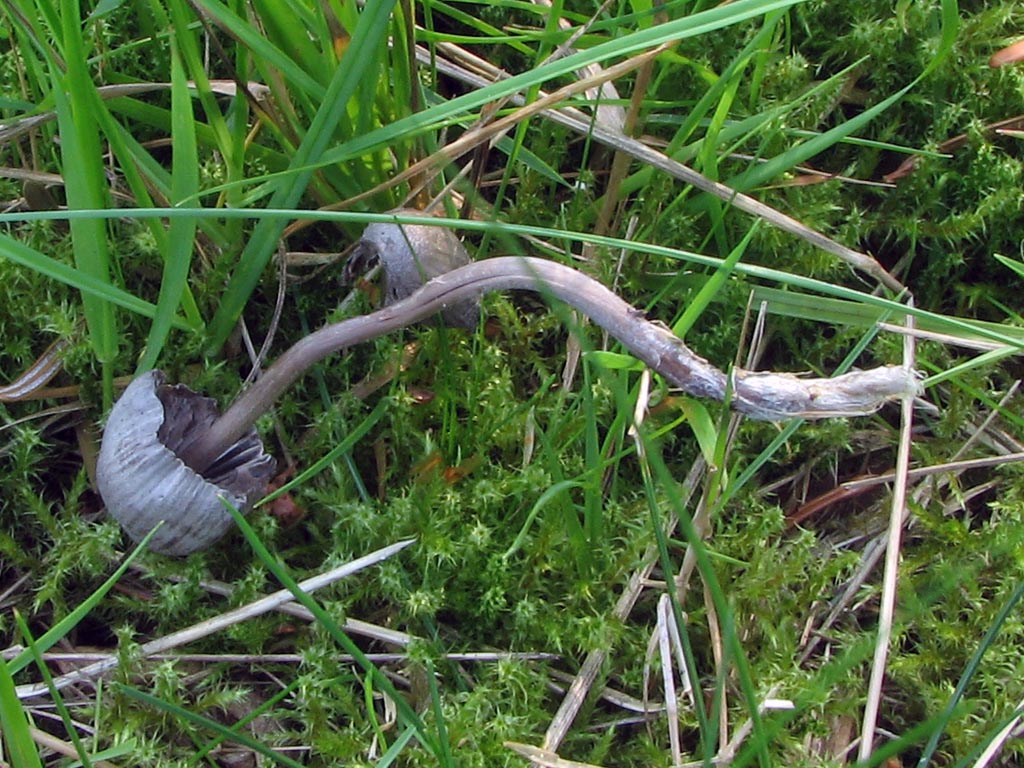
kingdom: Fungi
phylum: Basidiomycota
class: Agaricomycetes
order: Agaricales
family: Mycenaceae
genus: Mycena
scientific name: Mycena leptocephala
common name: klor-huesvamp
